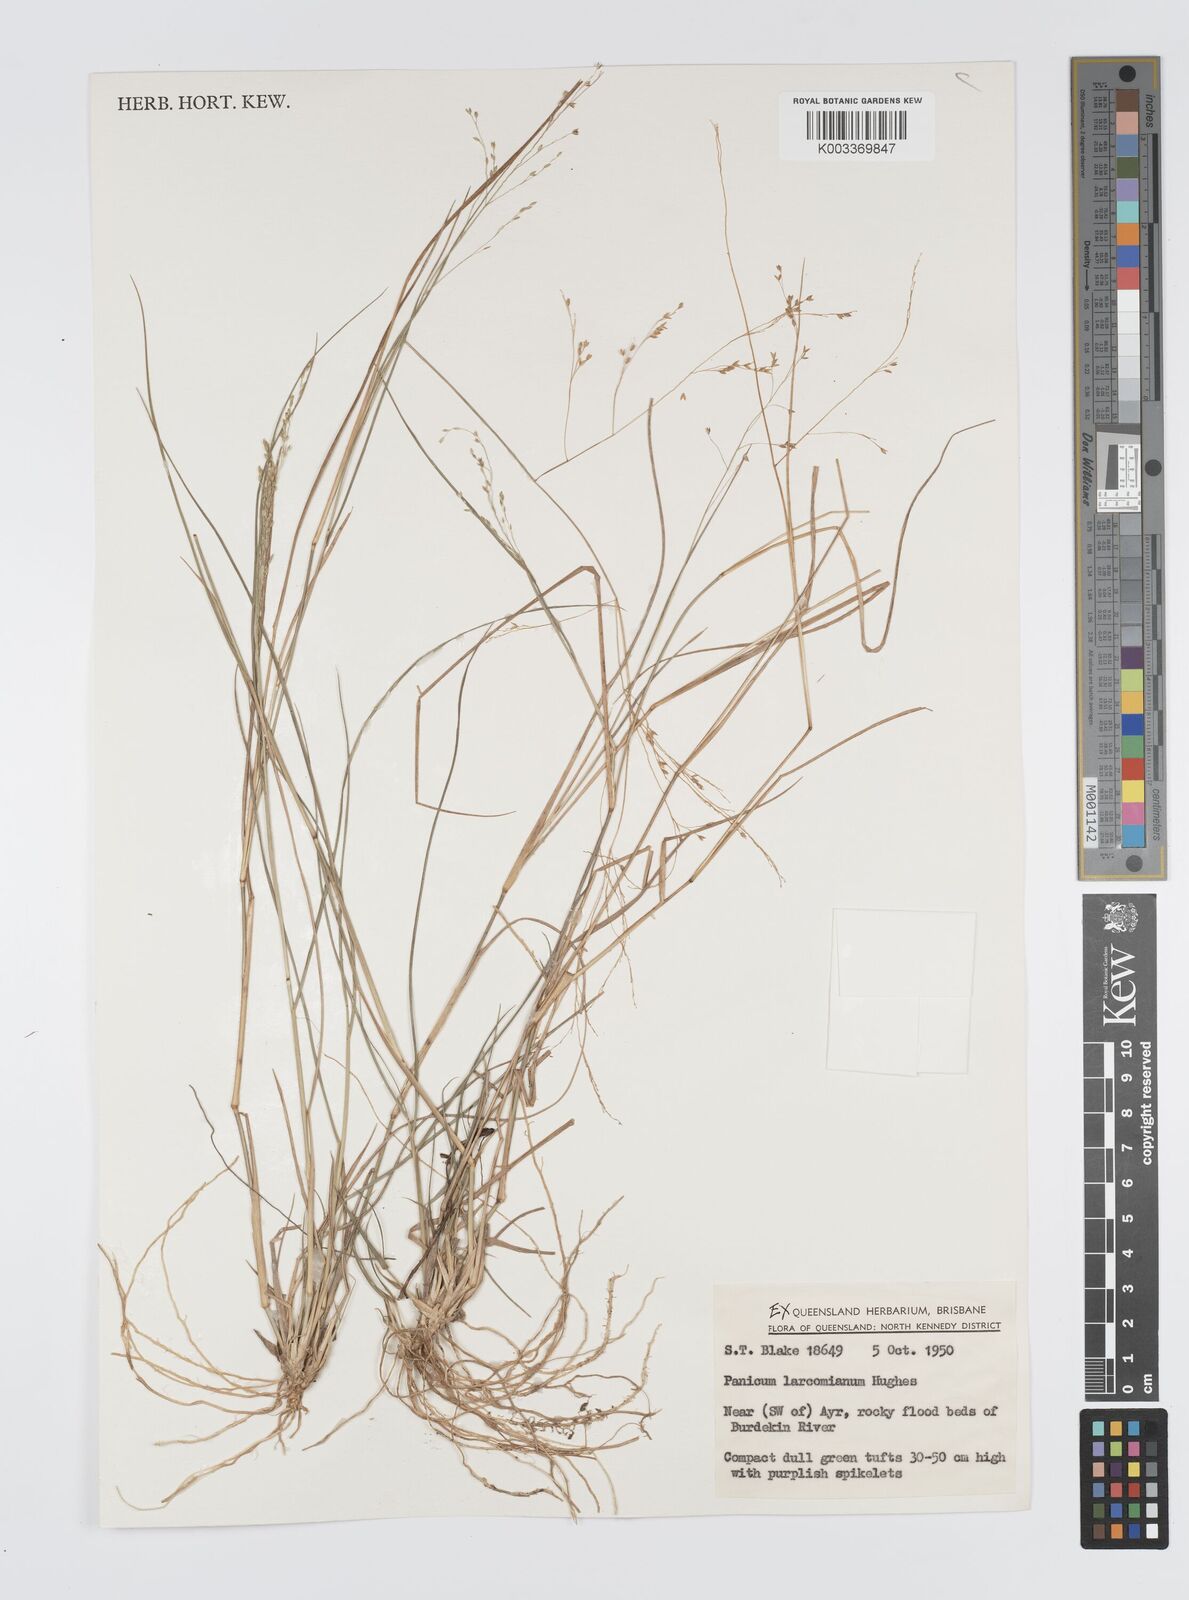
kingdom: Plantae
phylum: Tracheophyta
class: Liliopsida
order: Poales
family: Poaceae
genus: Panicum
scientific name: Panicum larcomianum
